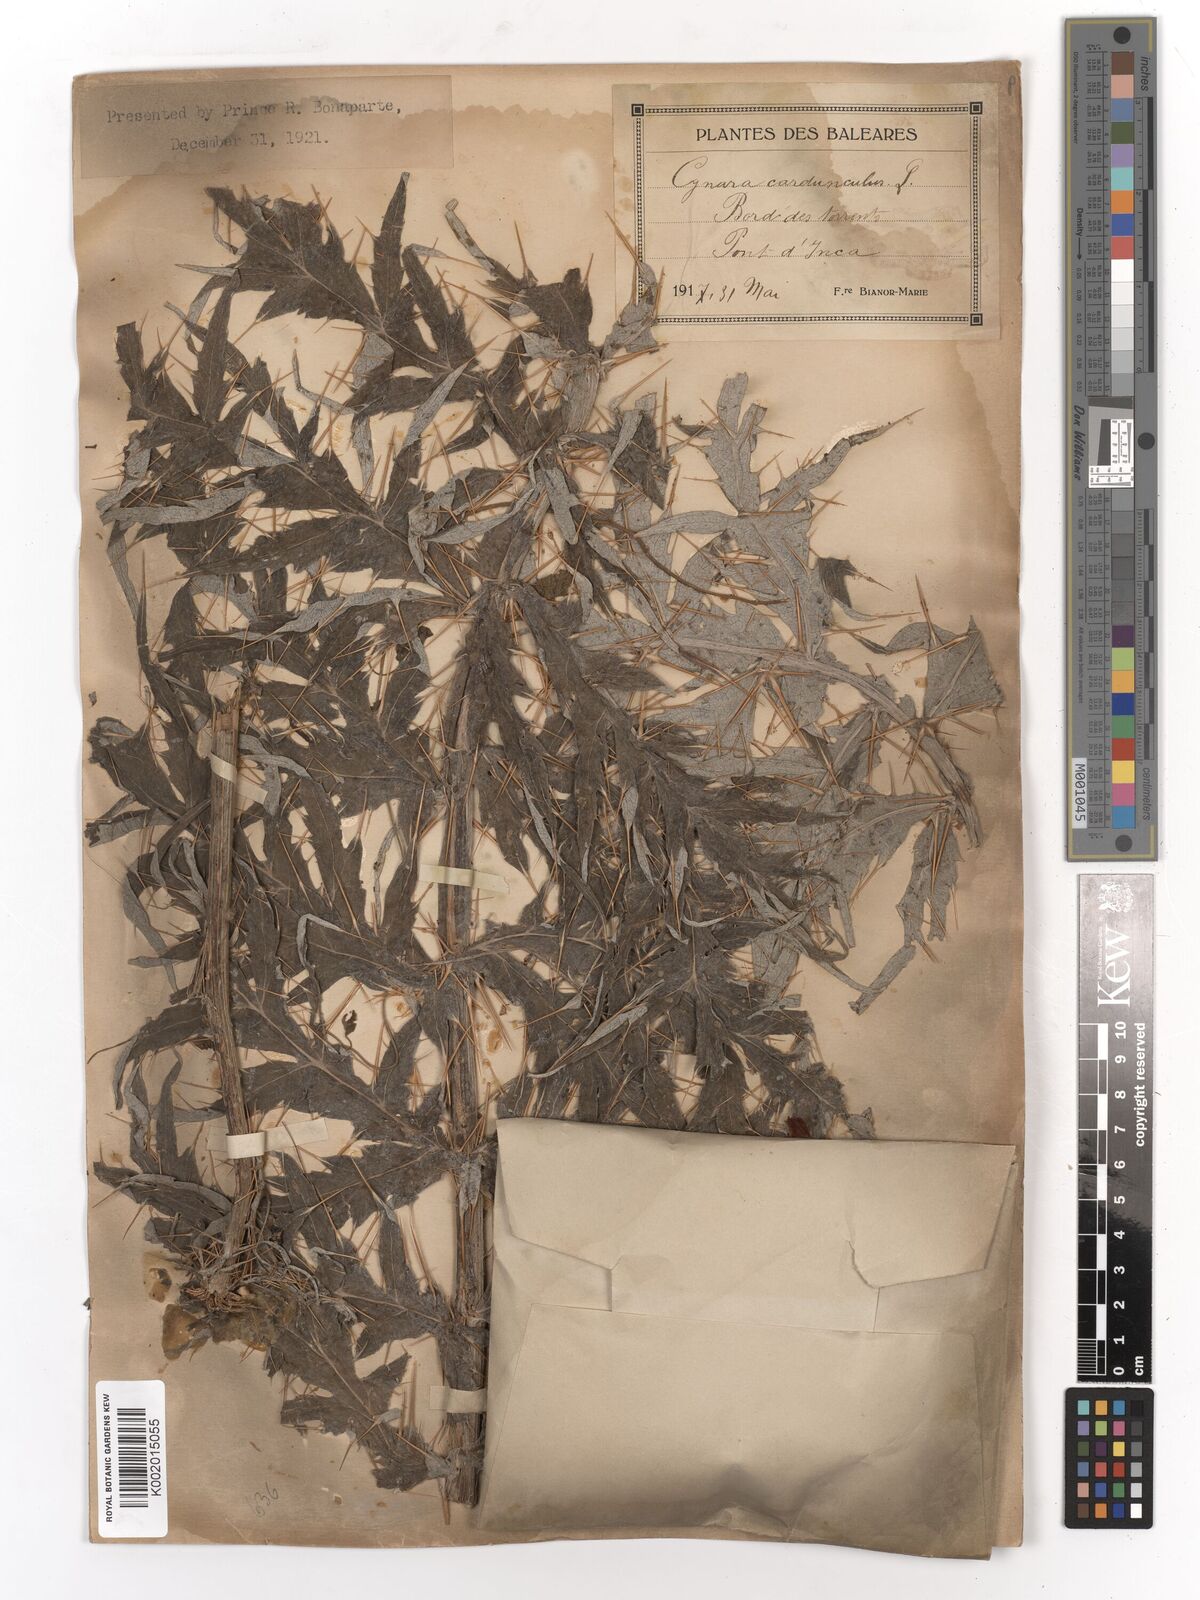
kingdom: Plantae
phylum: Tracheophyta
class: Magnoliopsida
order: Asterales
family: Asteraceae
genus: Cynara
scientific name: Cynara cardunculus
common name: Globe artichoke
